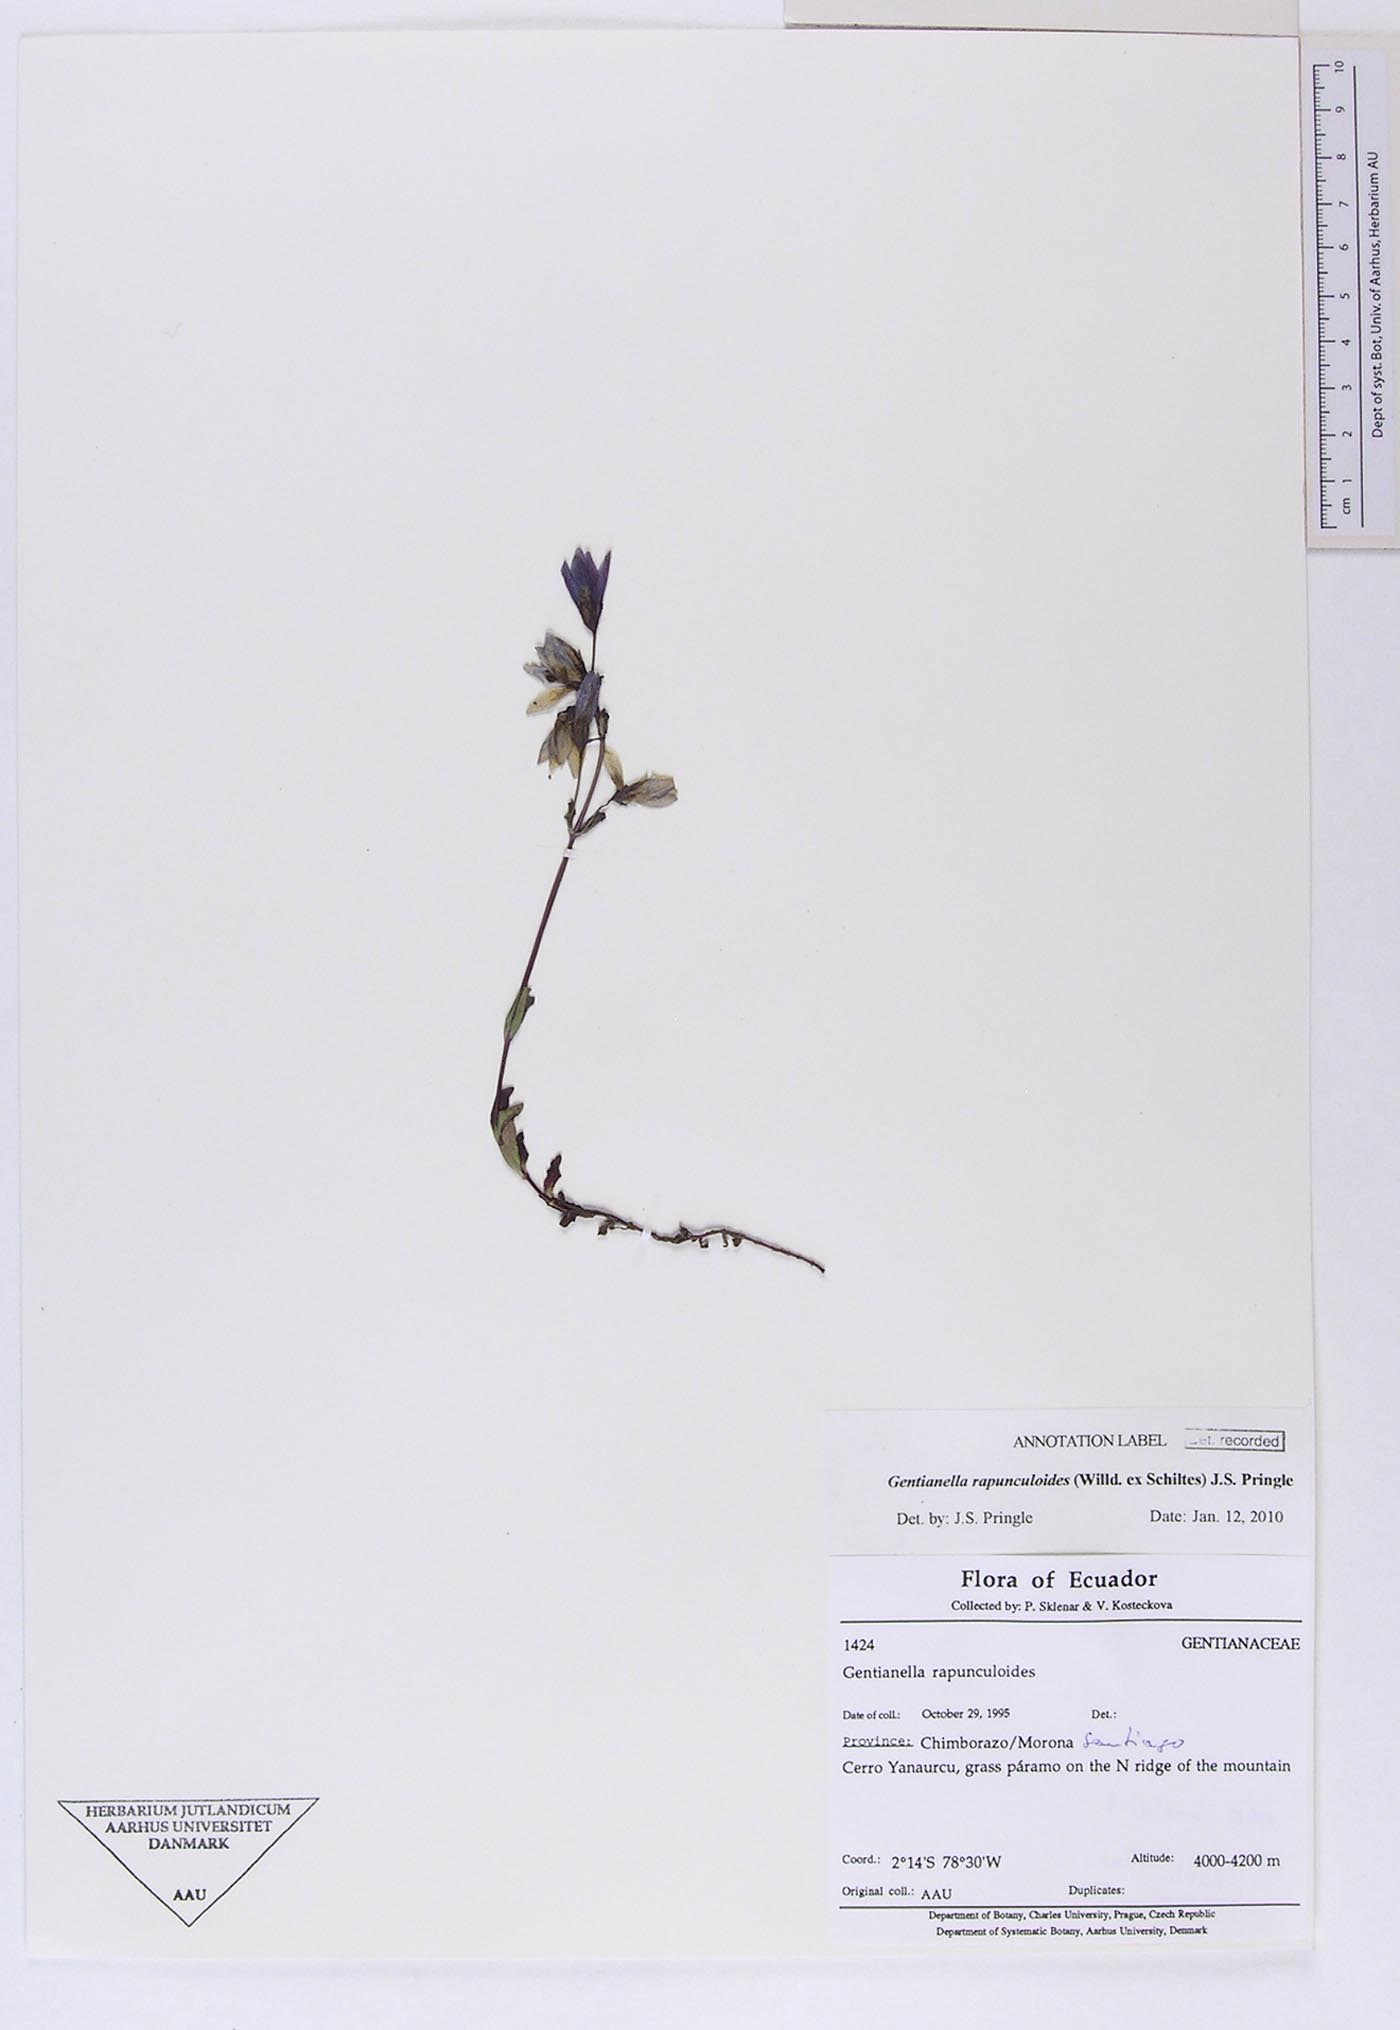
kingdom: Plantae
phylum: Tracheophyta
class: Magnoliopsida
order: Gentianales
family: Gentianaceae
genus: Gentianella
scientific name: Gentianella rapunculoides
